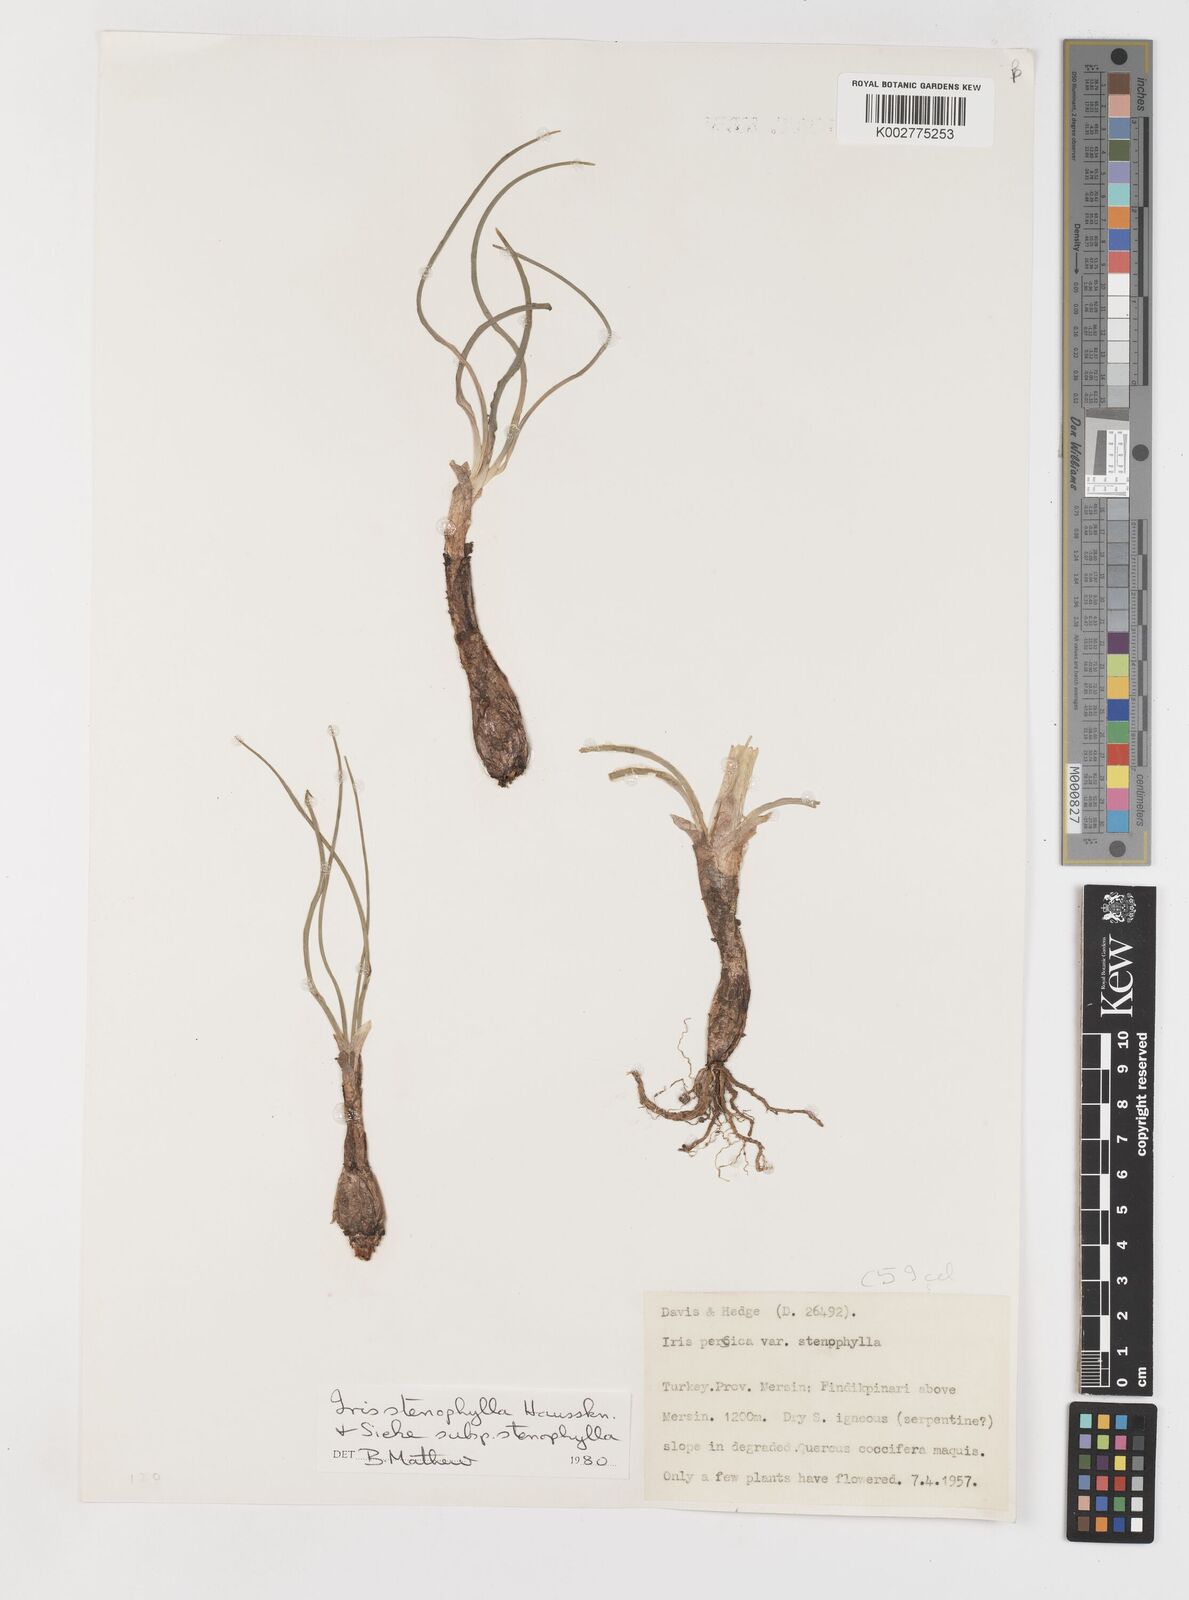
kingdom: Plantae
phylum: Tracheophyta
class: Liliopsida
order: Asparagales
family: Iridaceae
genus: Iris
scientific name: Iris stenophylla
